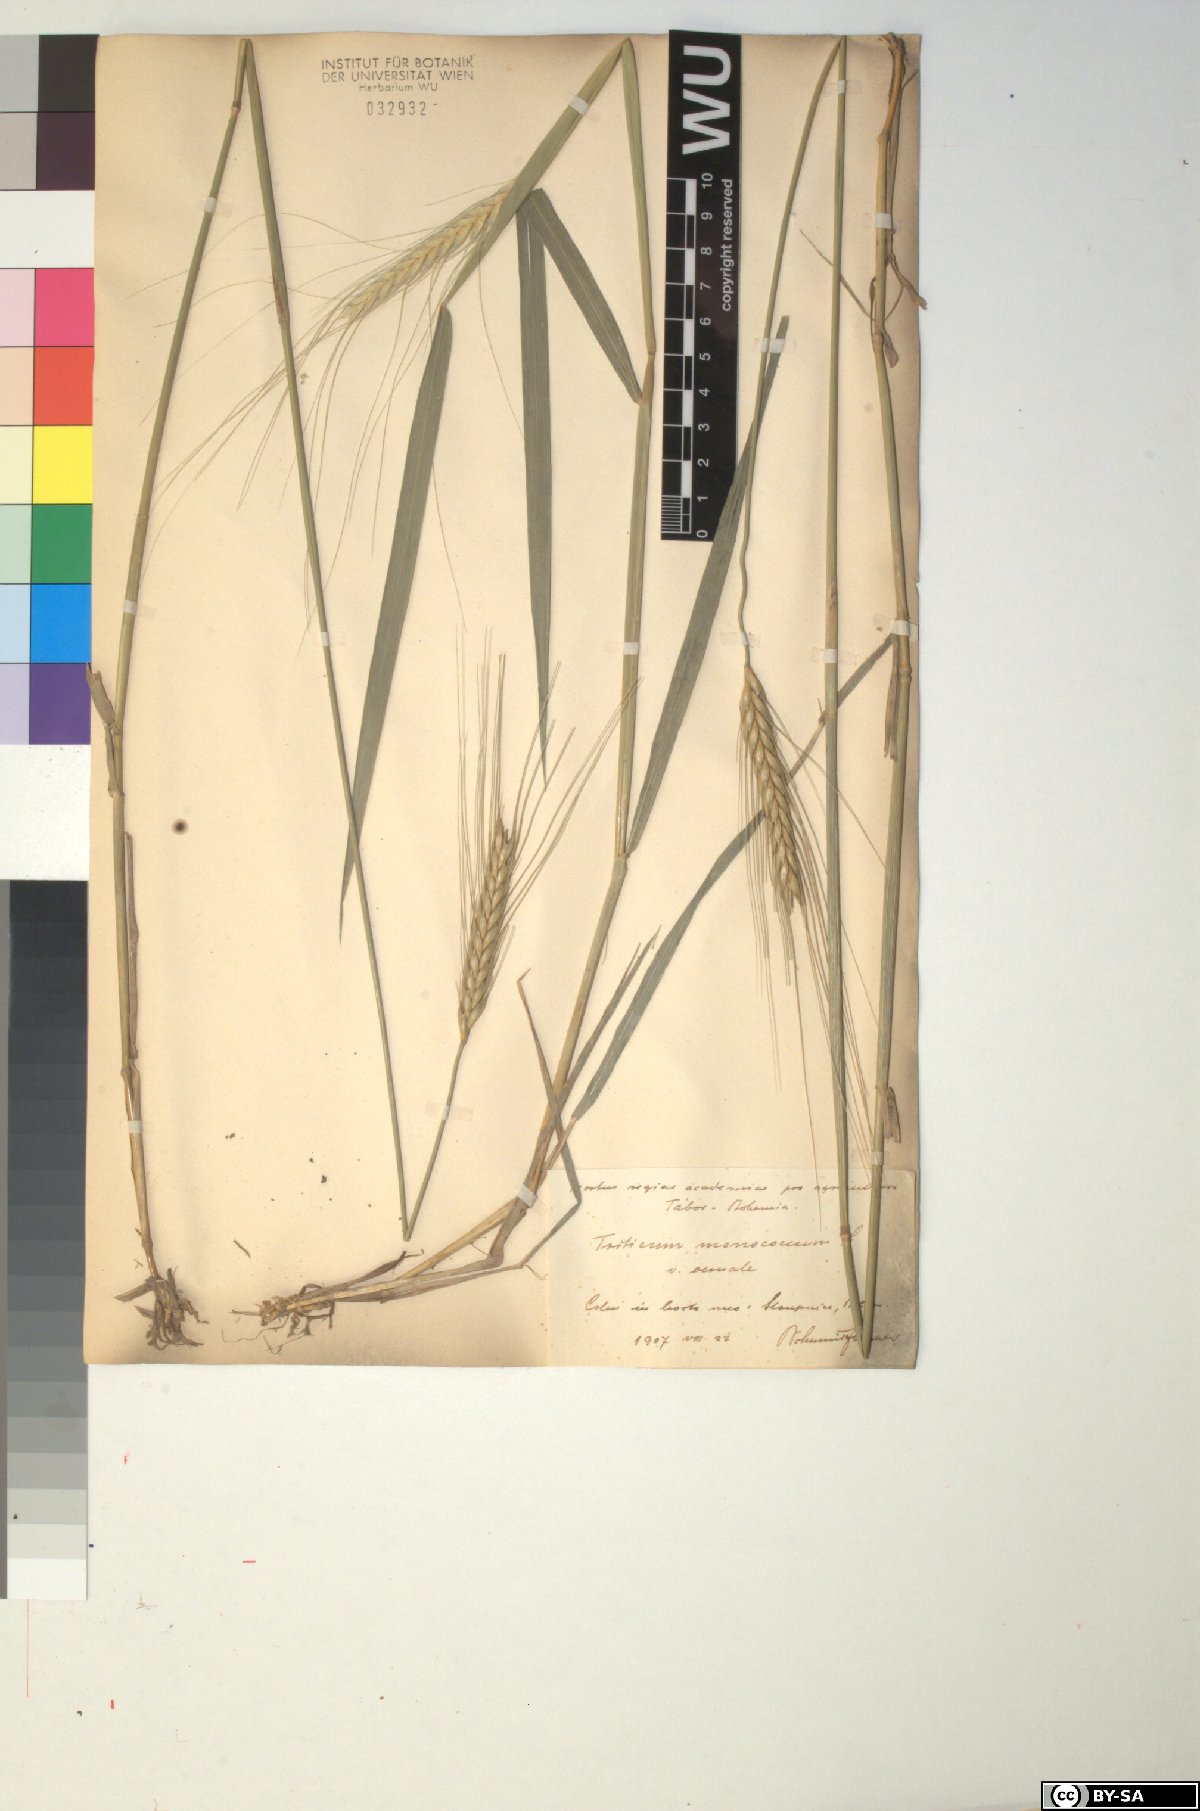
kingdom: Plantae
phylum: Tracheophyta
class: Liliopsida
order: Poales
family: Poaceae
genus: Triticum
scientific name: Triticum monococcum
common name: Einkorn
